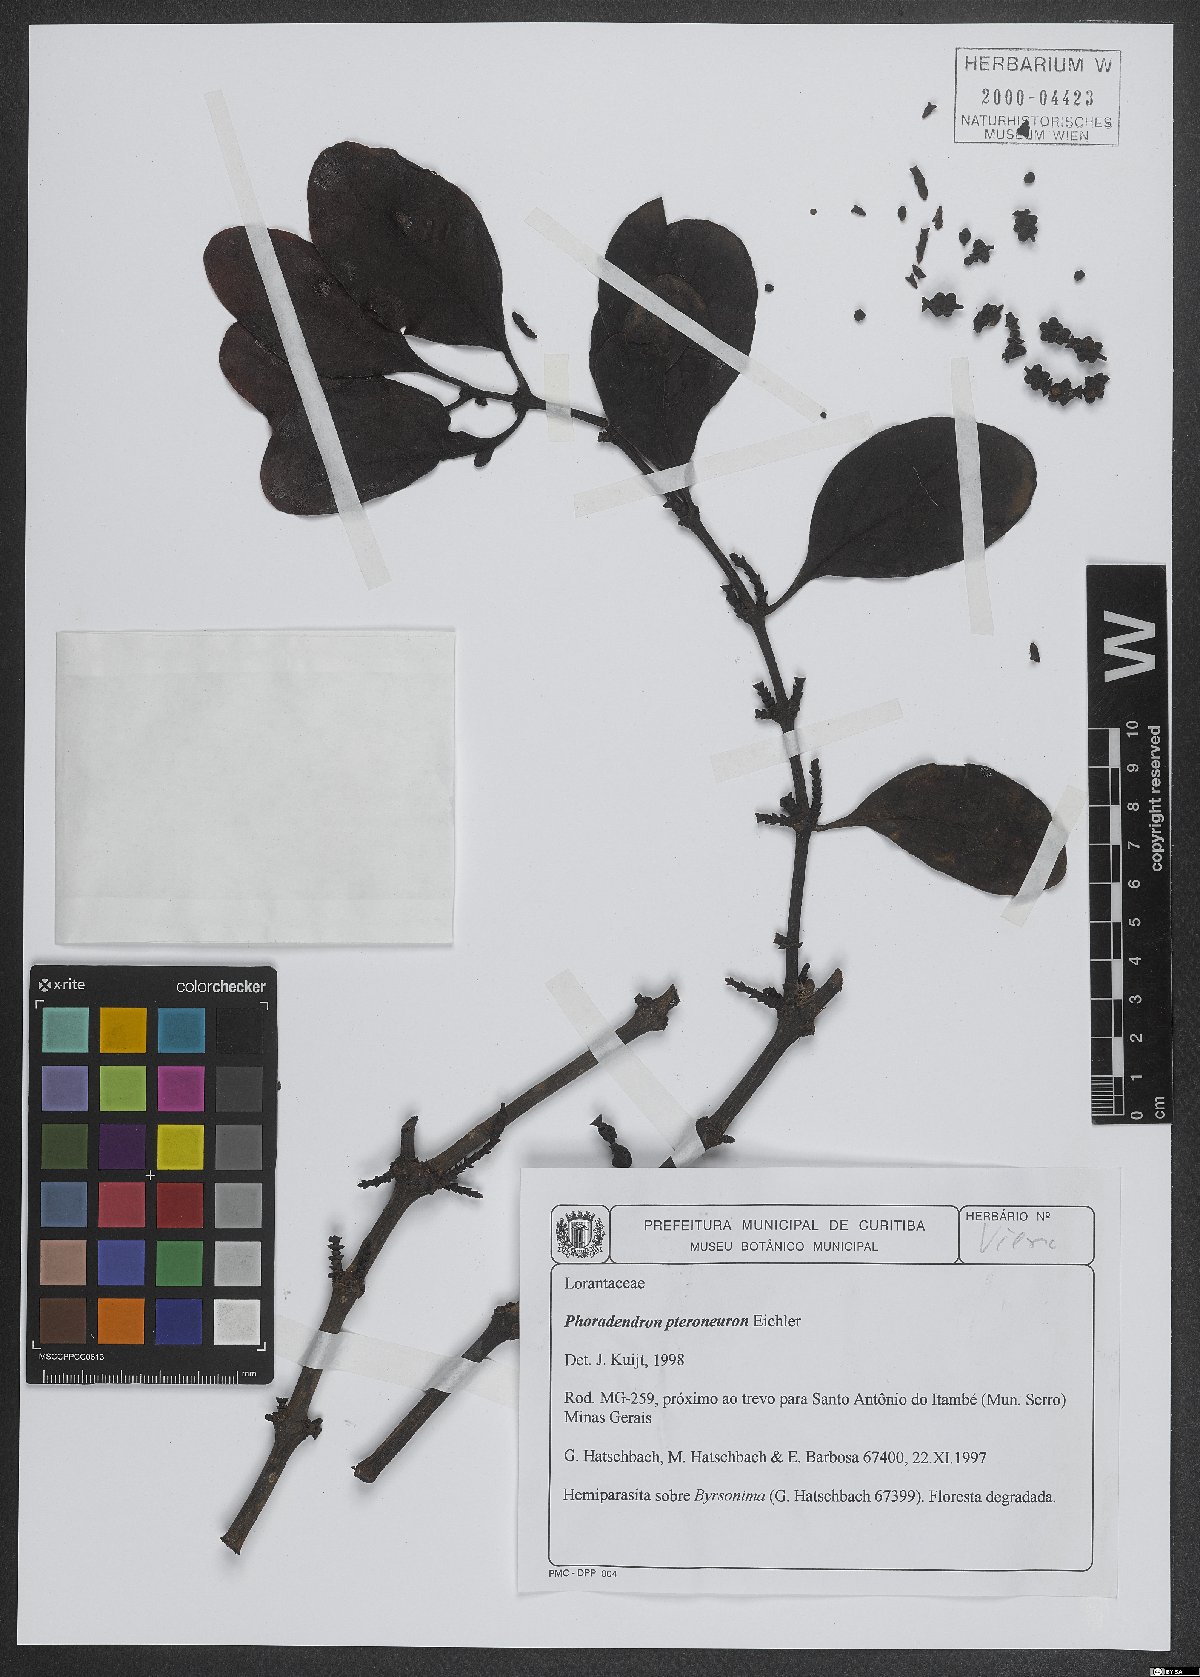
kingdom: Plantae
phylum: Tracheophyta
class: Magnoliopsida
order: Santalales
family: Viscaceae
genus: Phoradendron
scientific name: Phoradendron pteroneuron
